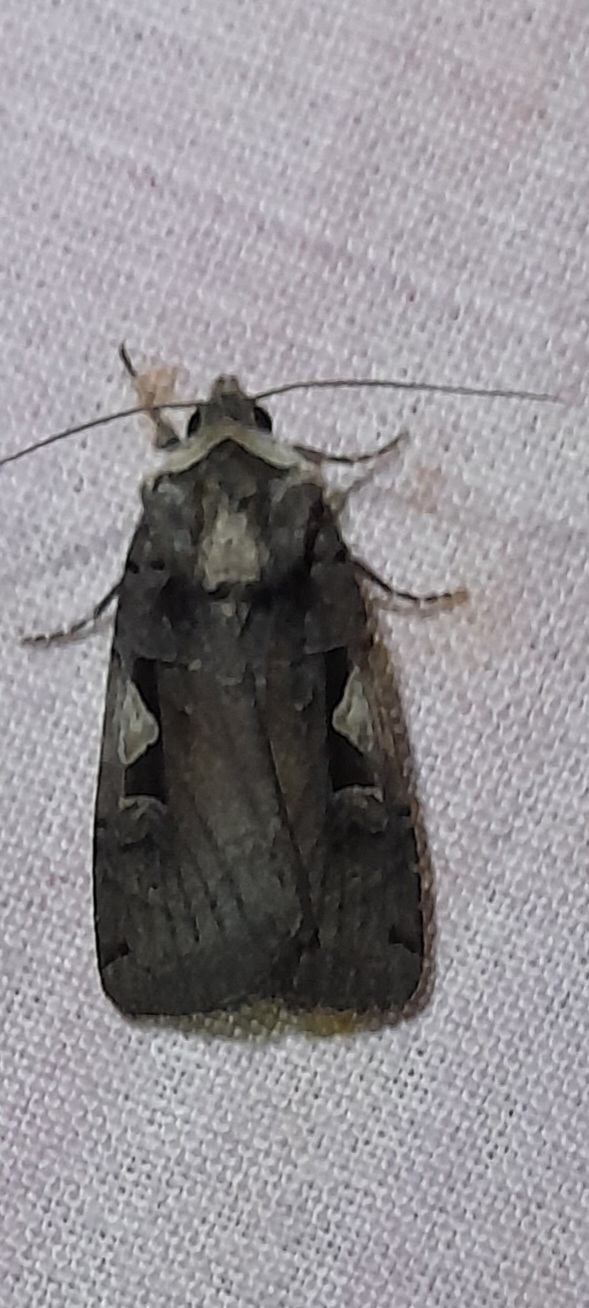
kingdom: Animalia
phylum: Arthropoda
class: Insecta
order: Lepidoptera
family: Noctuidae
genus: Xestia
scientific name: Xestia c-nigrum
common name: Det sorte c
